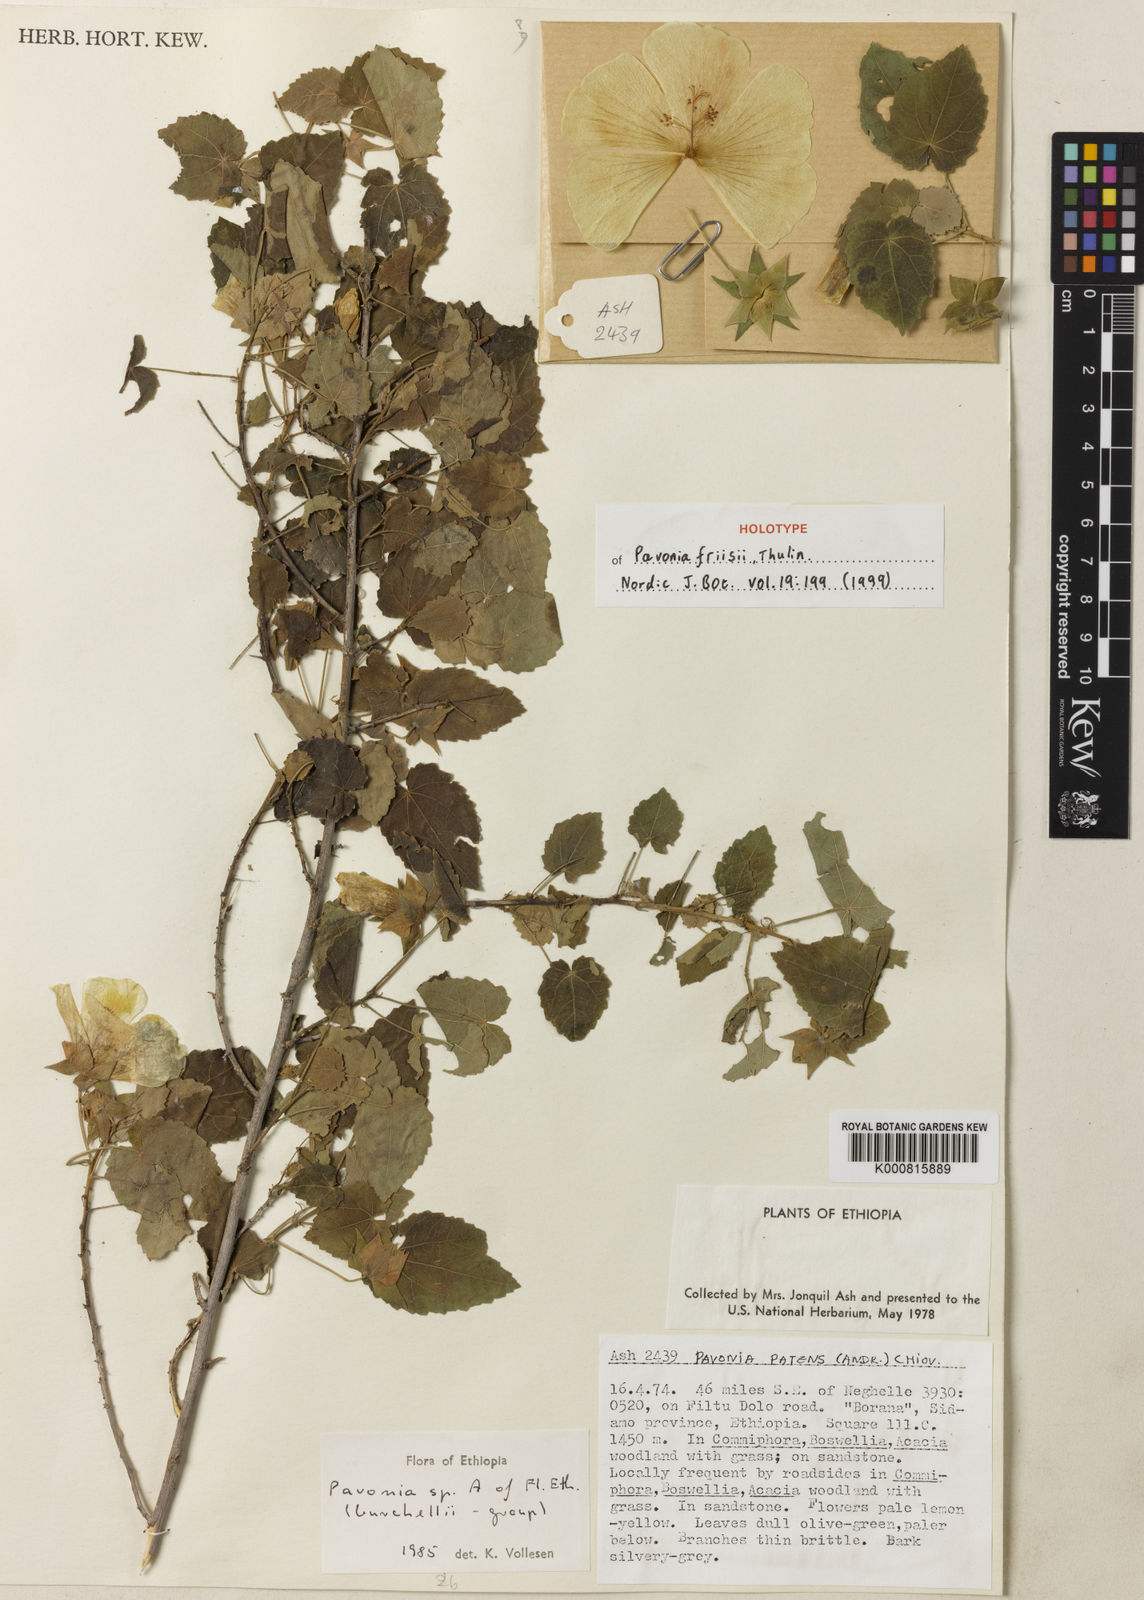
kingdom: Plantae
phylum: Tracheophyta
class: Magnoliopsida
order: Malvales
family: Malvaceae
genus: Pavonia
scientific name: Pavonia friisii
